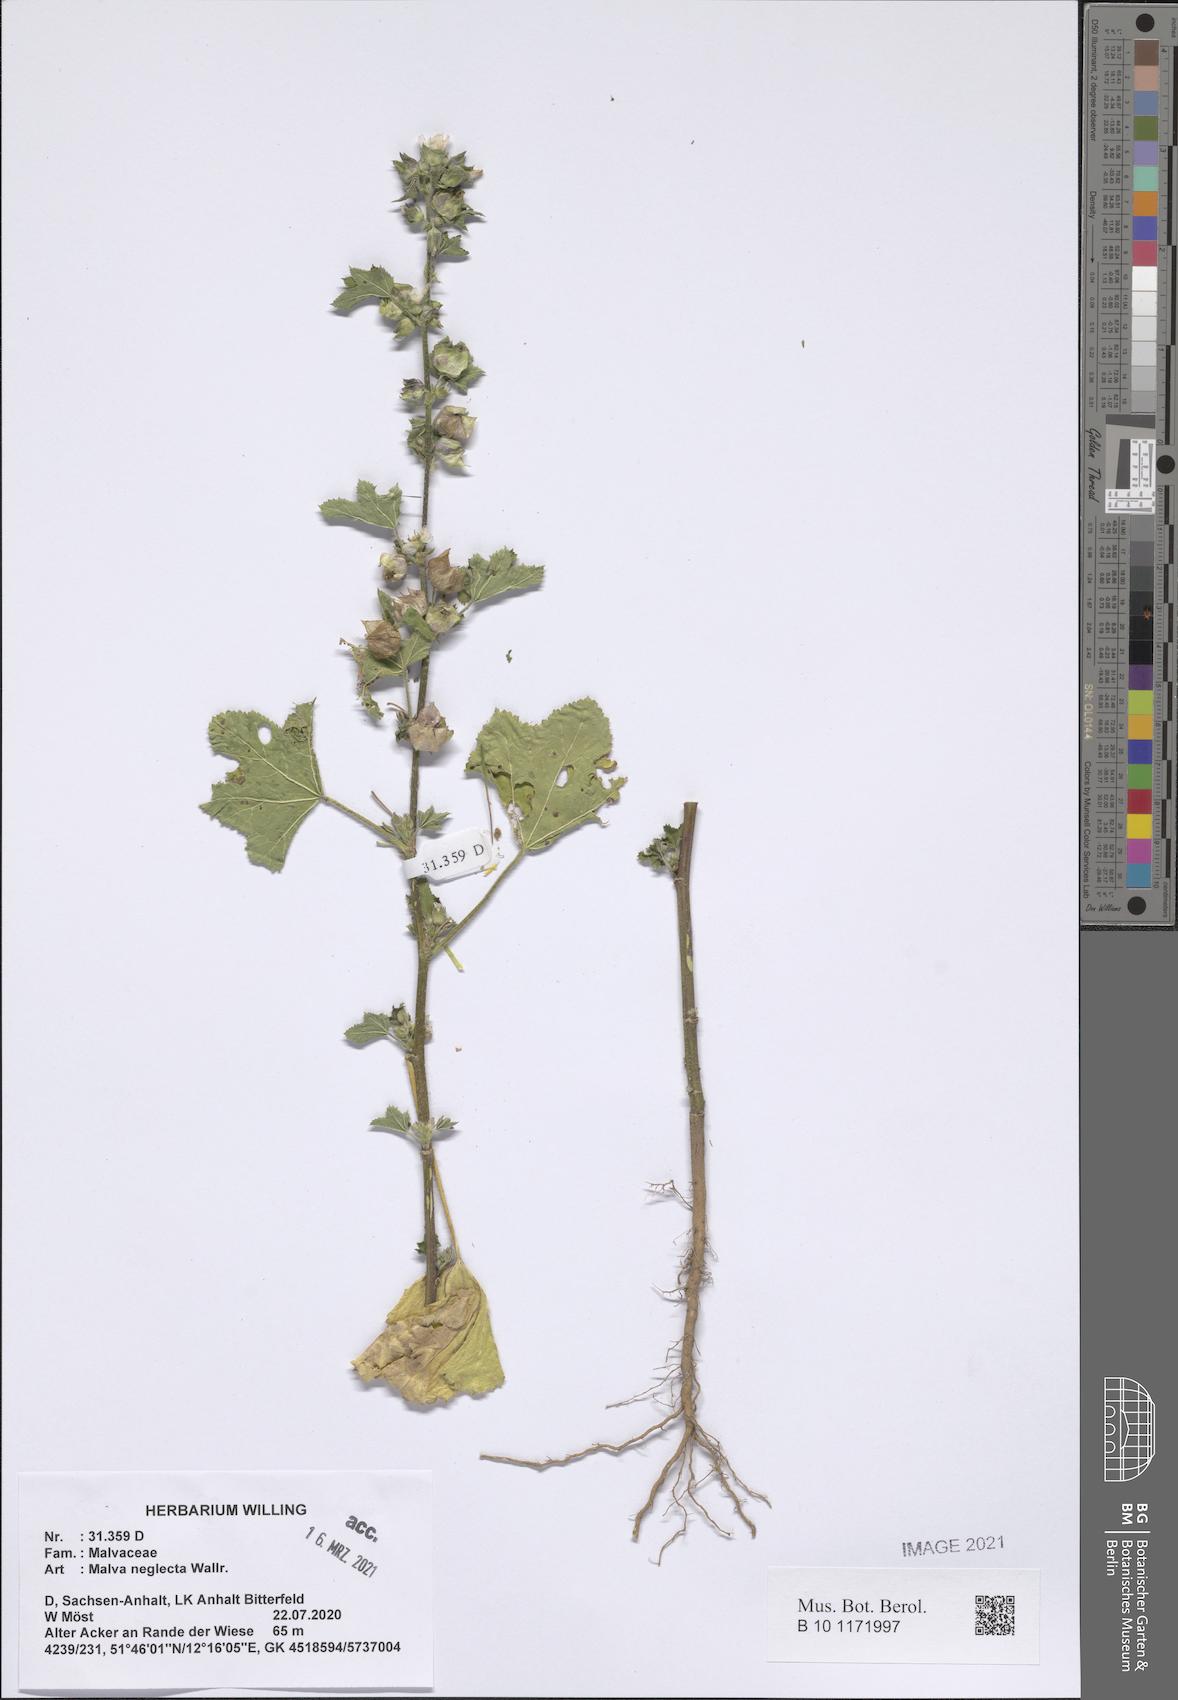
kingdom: Plantae
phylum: Tracheophyta
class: Magnoliopsida
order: Malvales
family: Malvaceae
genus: Malva
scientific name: Malva neglecta
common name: Common mallow
